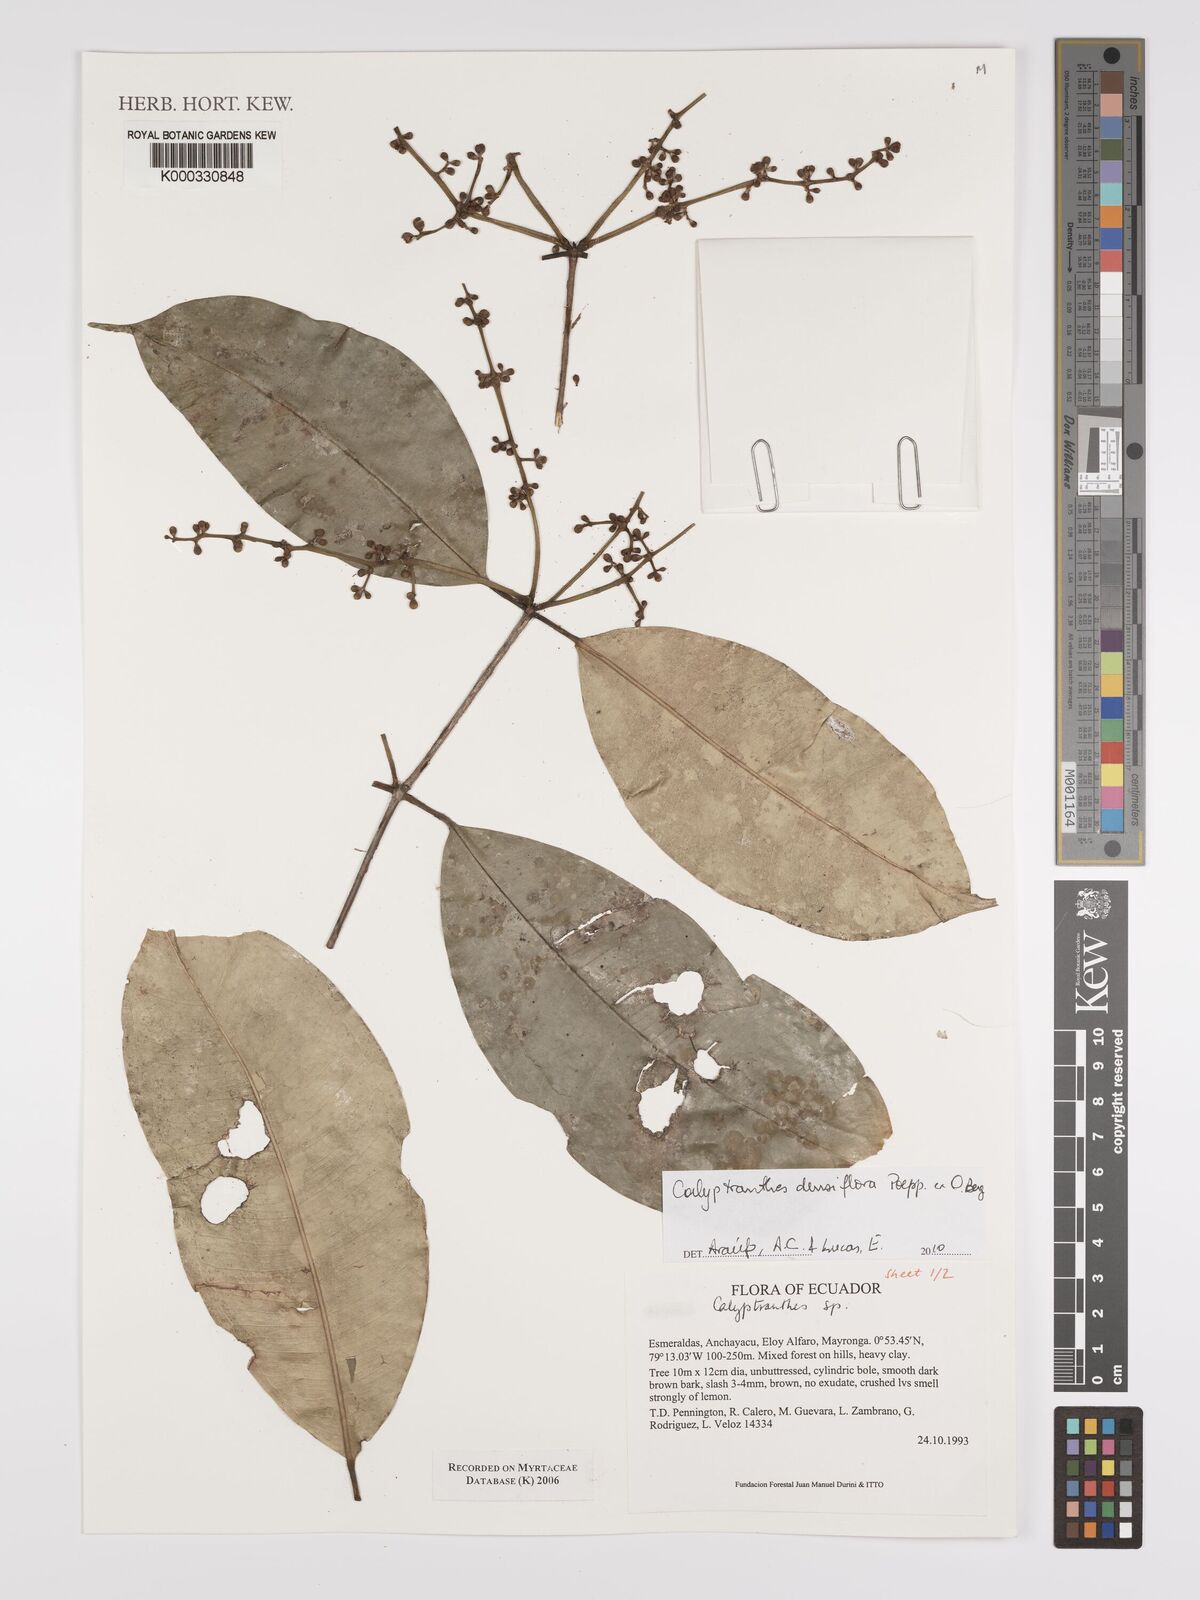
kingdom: Plantae
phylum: Tracheophyta
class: Magnoliopsida
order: Myrtales
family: Myrtaceae
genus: Calyptranthes
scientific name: Calyptranthes
